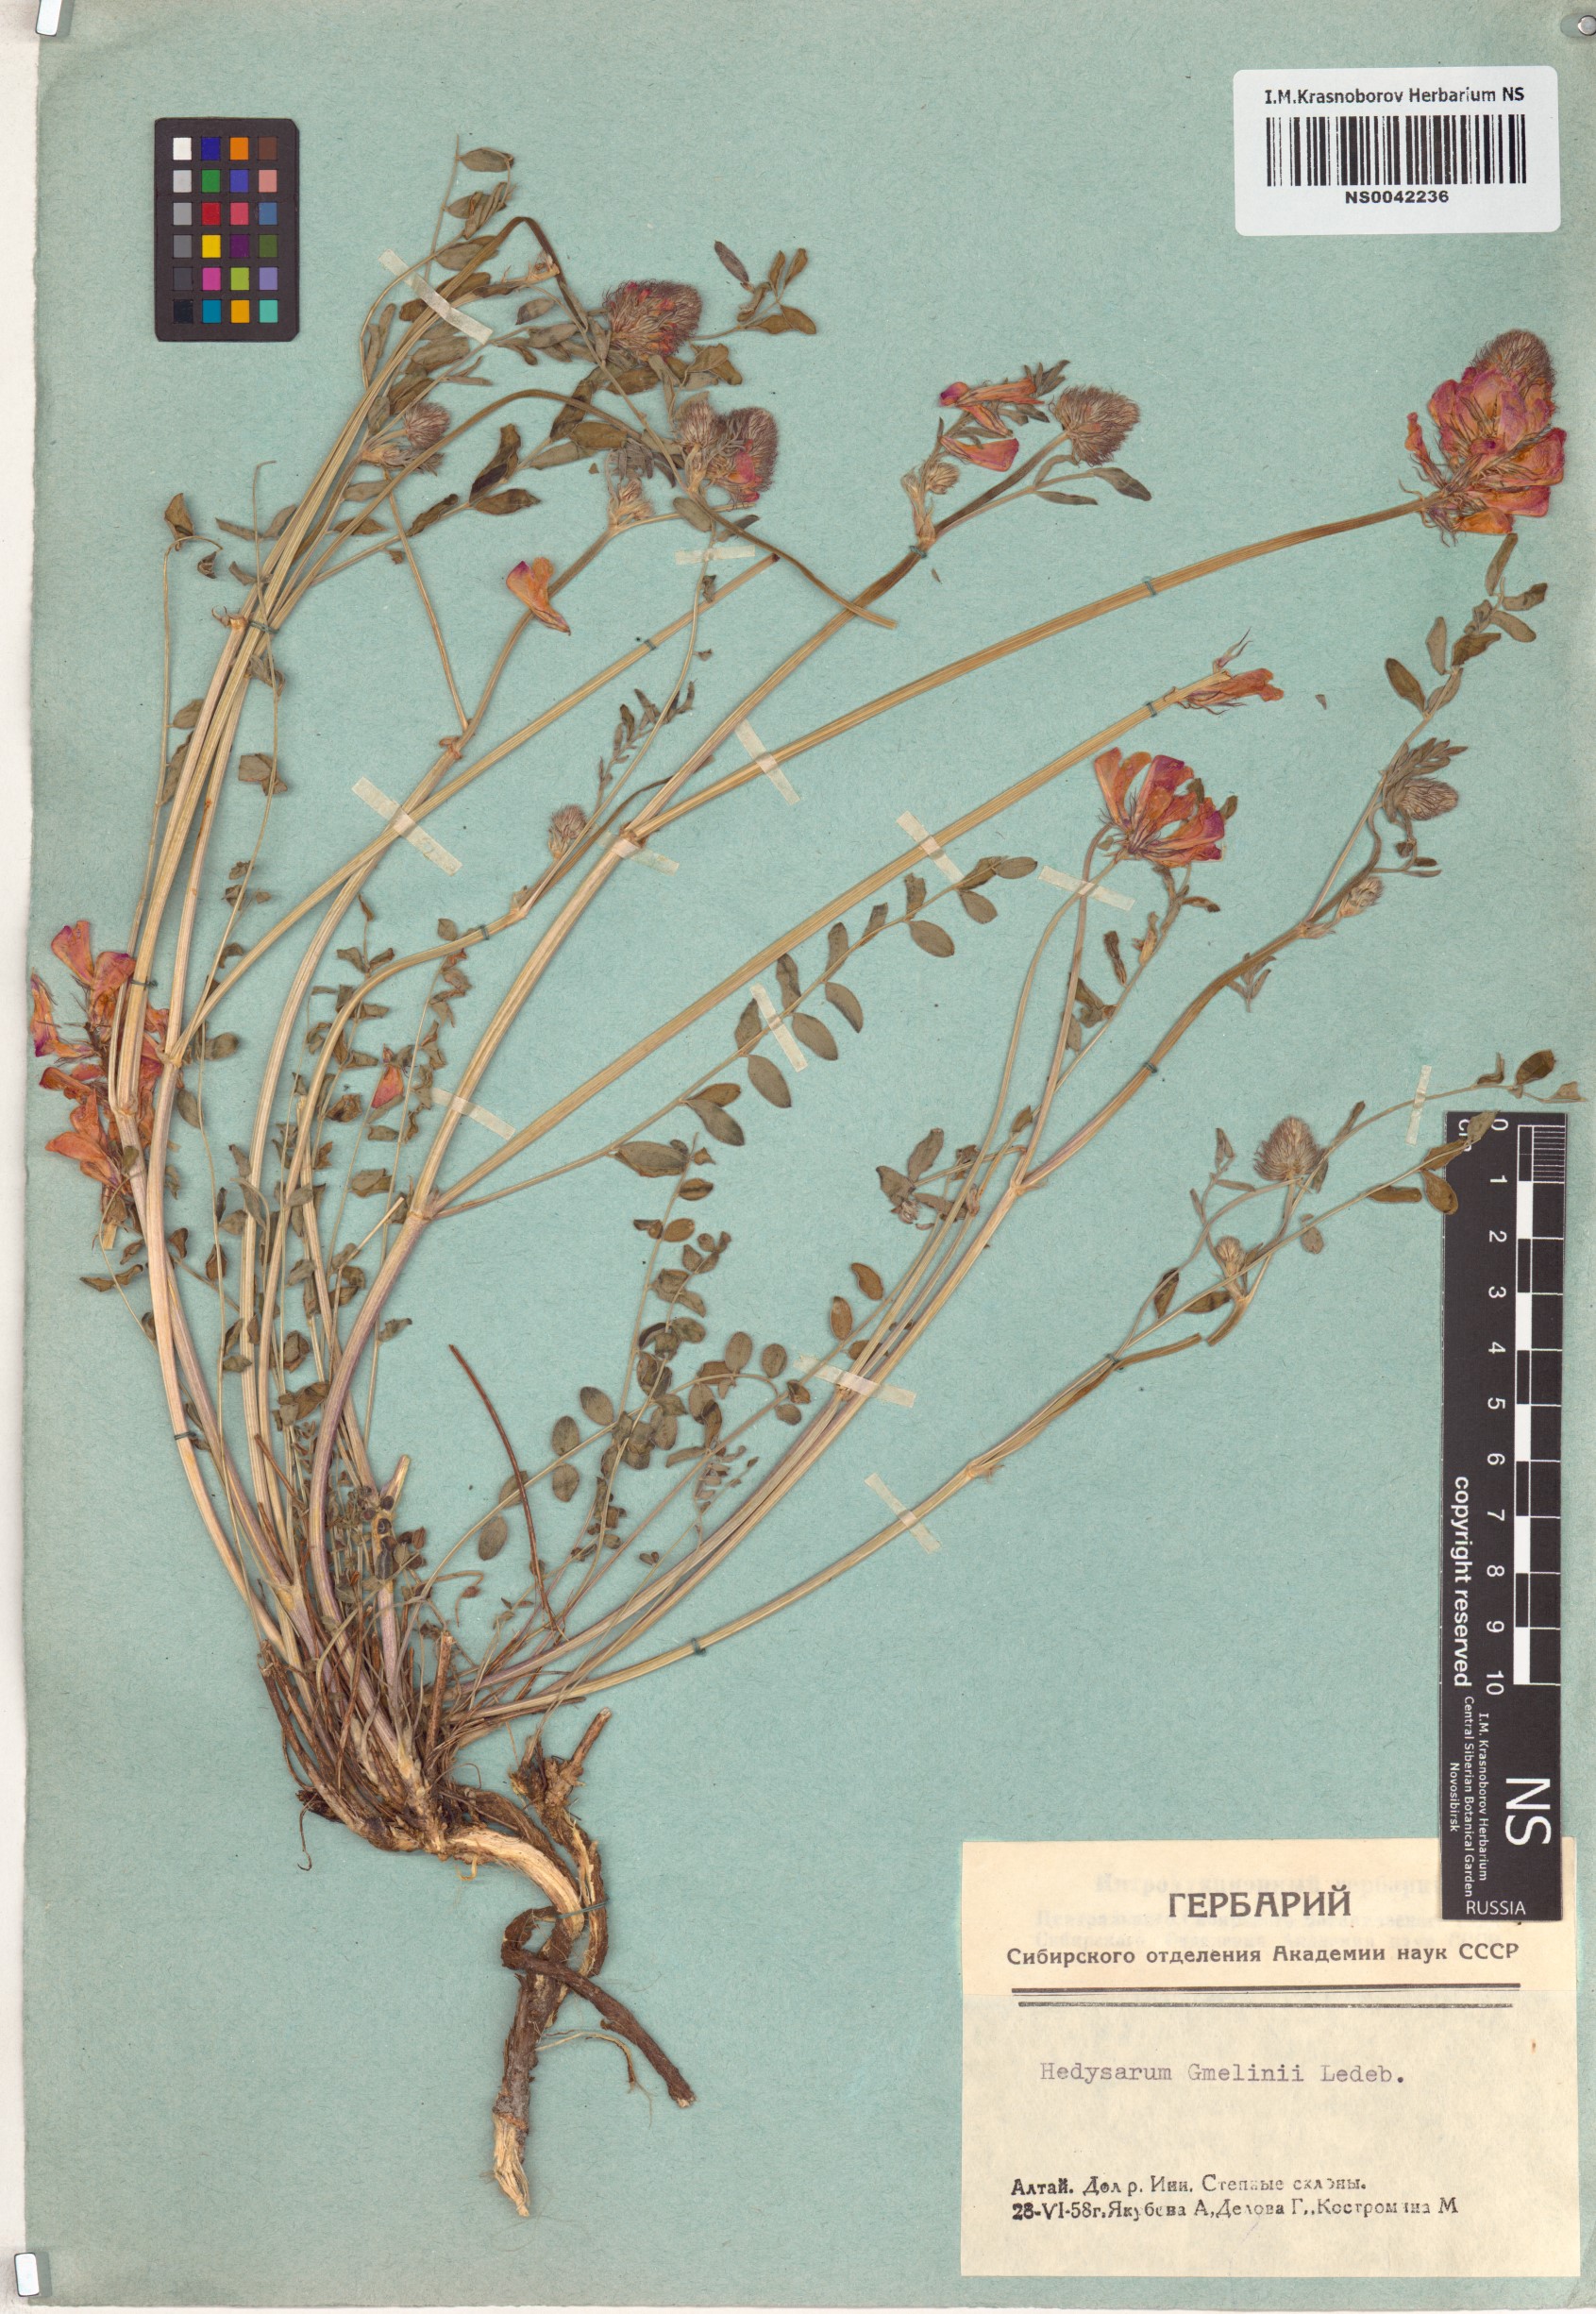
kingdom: Plantae
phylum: Tracheophyta
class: Magnoliopsida
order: Fabales
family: Fabaceae
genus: Hedysarum
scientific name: Hedysarum gmelinii
